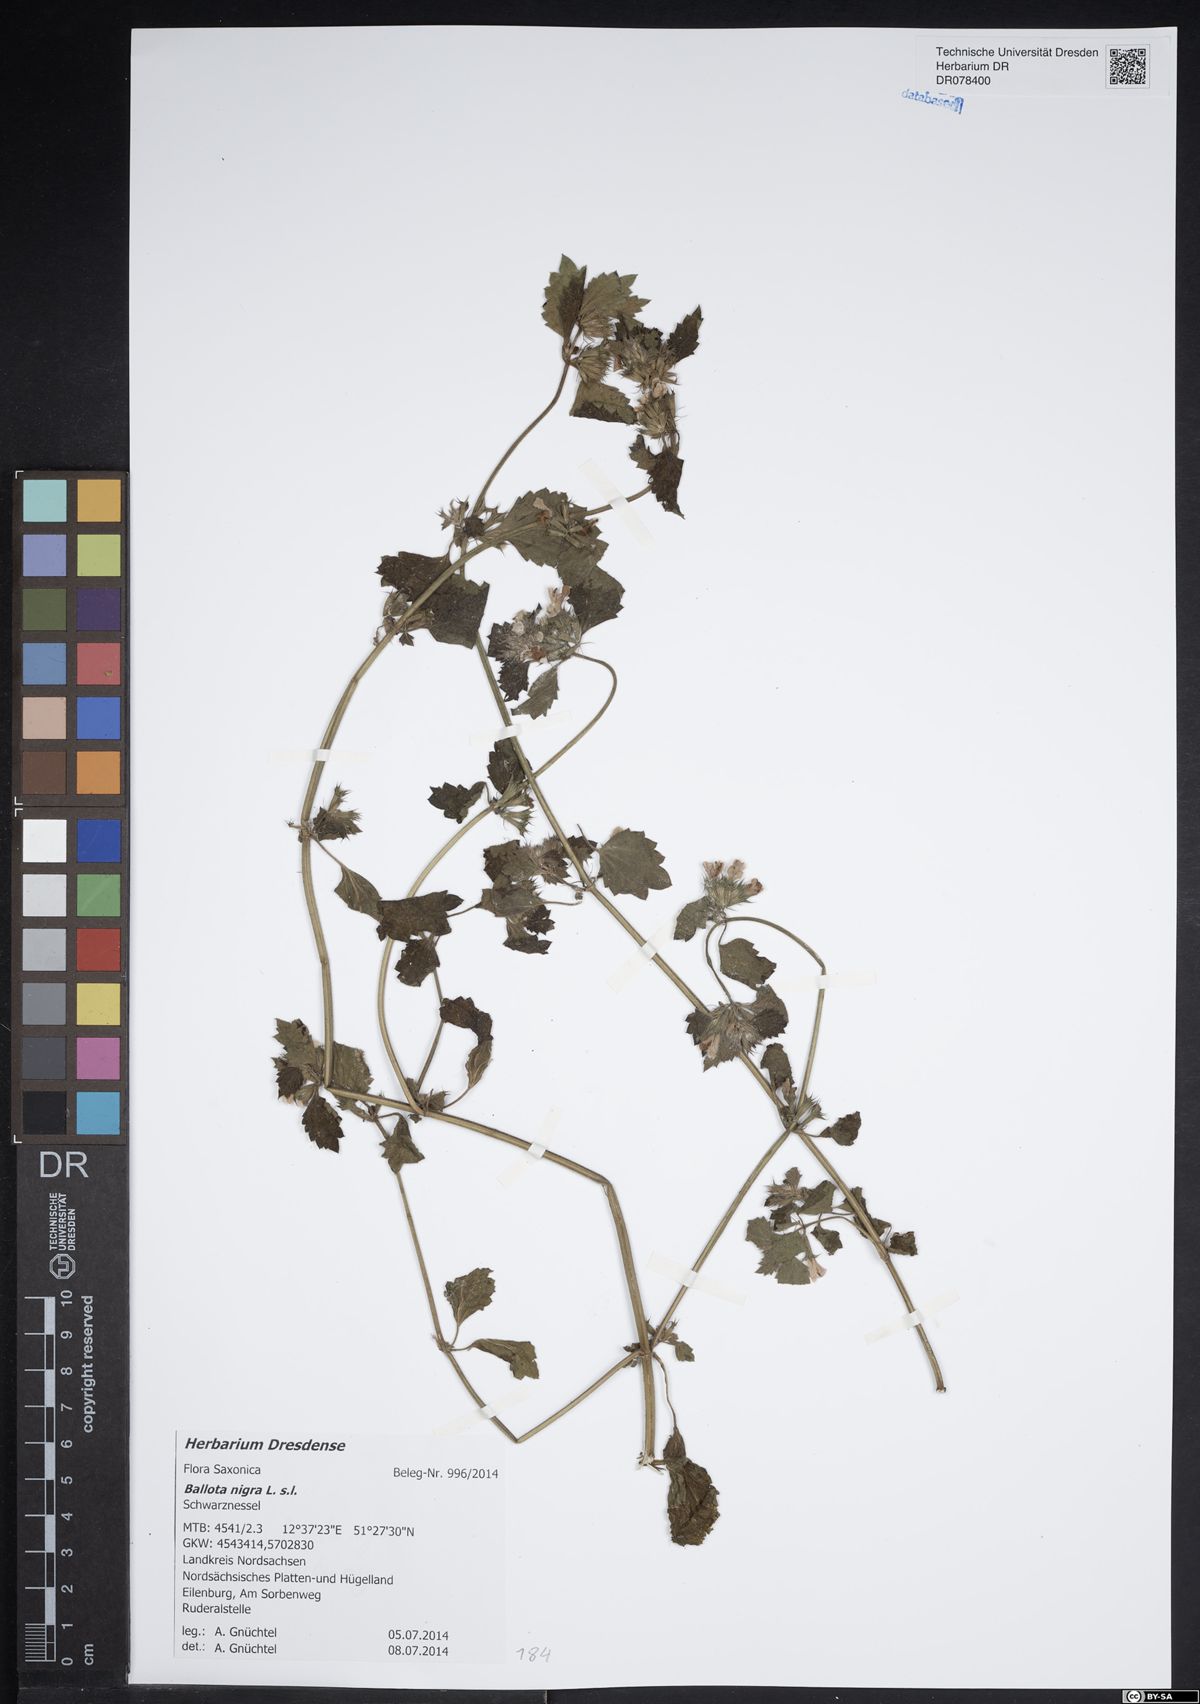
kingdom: Plantae
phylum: Tracheophyta
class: Magnoliopsida
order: Lamiales
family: Lamiaceae
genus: Ballota
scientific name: Ballota nigra
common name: Black horehound
